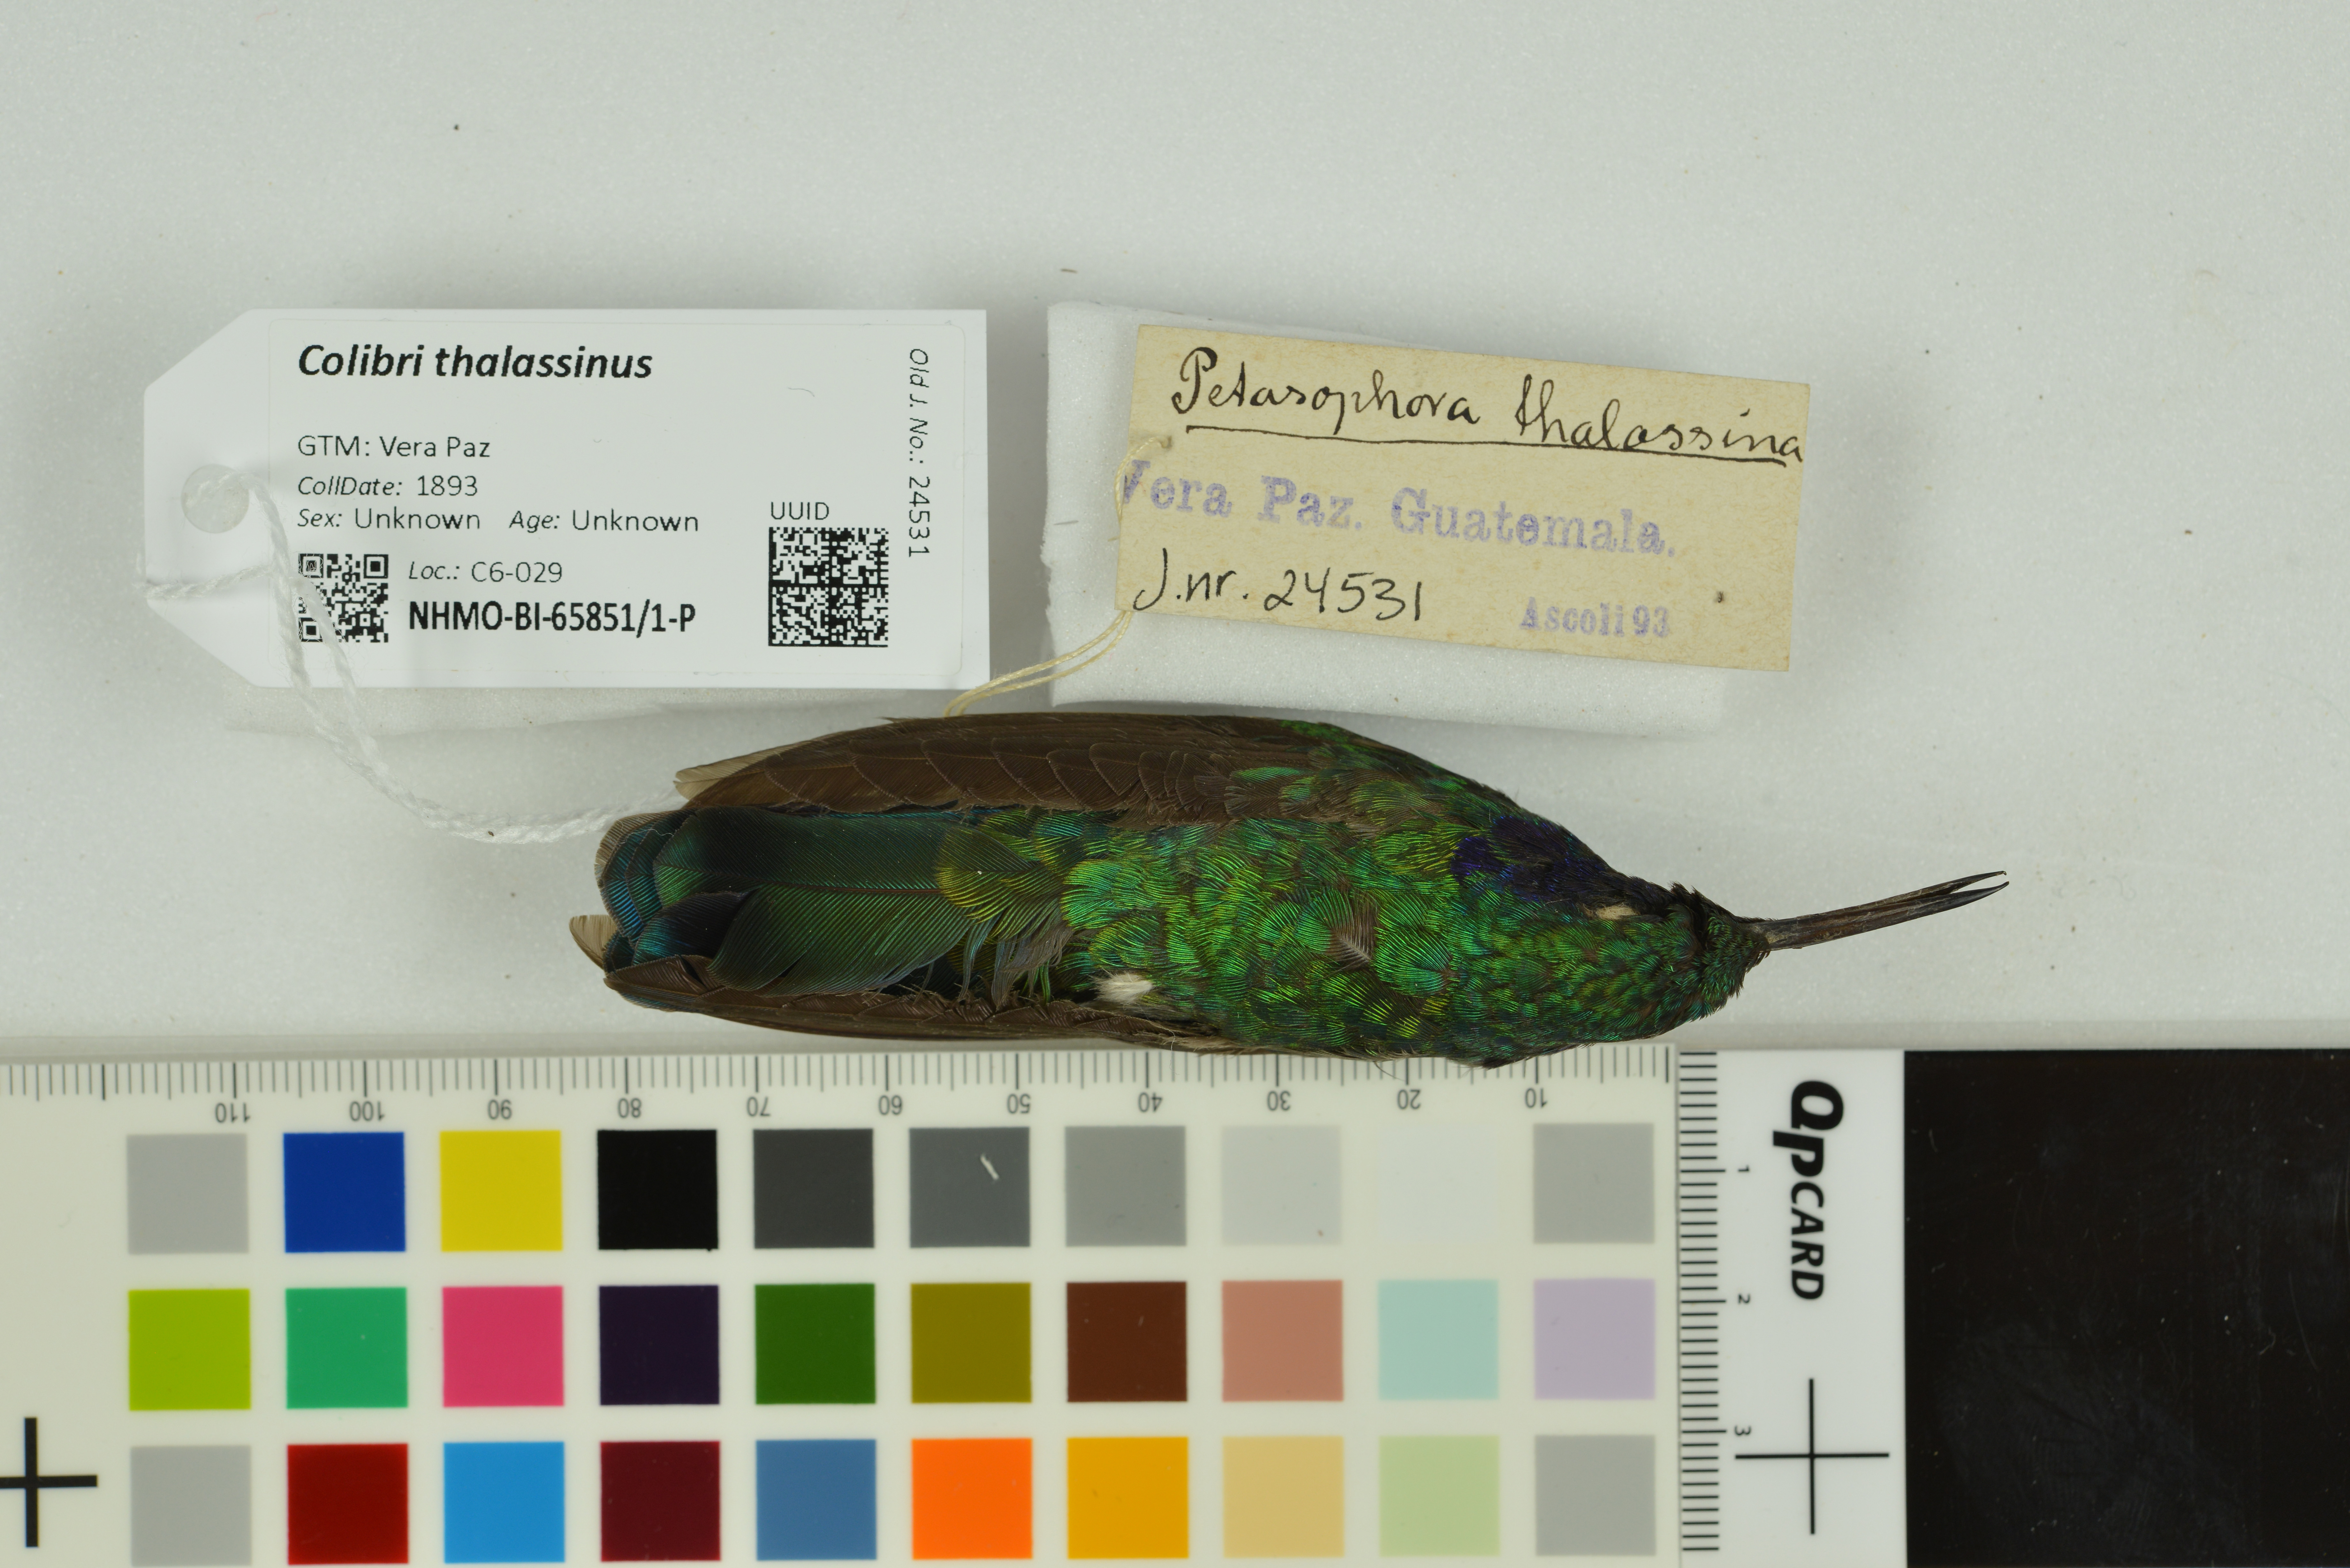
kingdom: Animalia
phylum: Chordata
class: Aves
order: Apodiformes
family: Trochilidae
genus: Colibri
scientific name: Colibri thalassinus
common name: Green violetear
